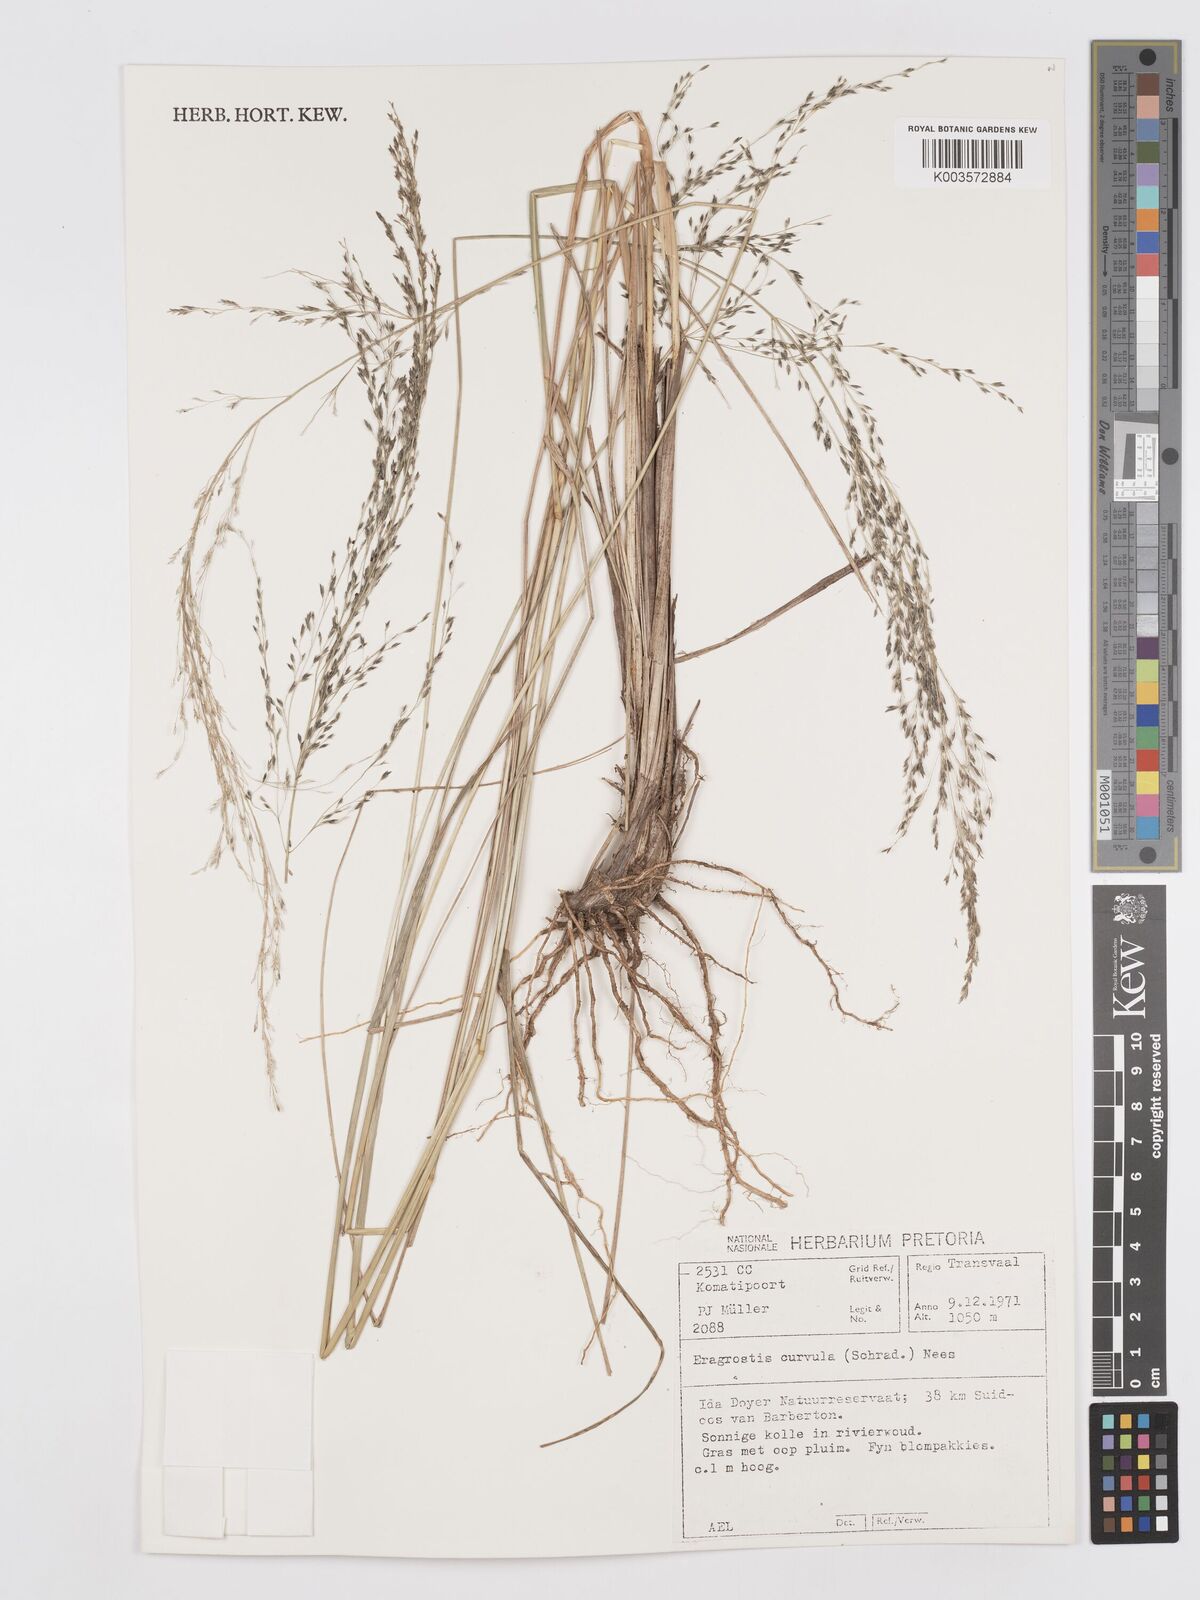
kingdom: Plantae
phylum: Tracheophyta
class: Liliopsida
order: Poales
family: Poaceae
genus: Eragrostis
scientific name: Eragrostis curvula
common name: African love-grass
